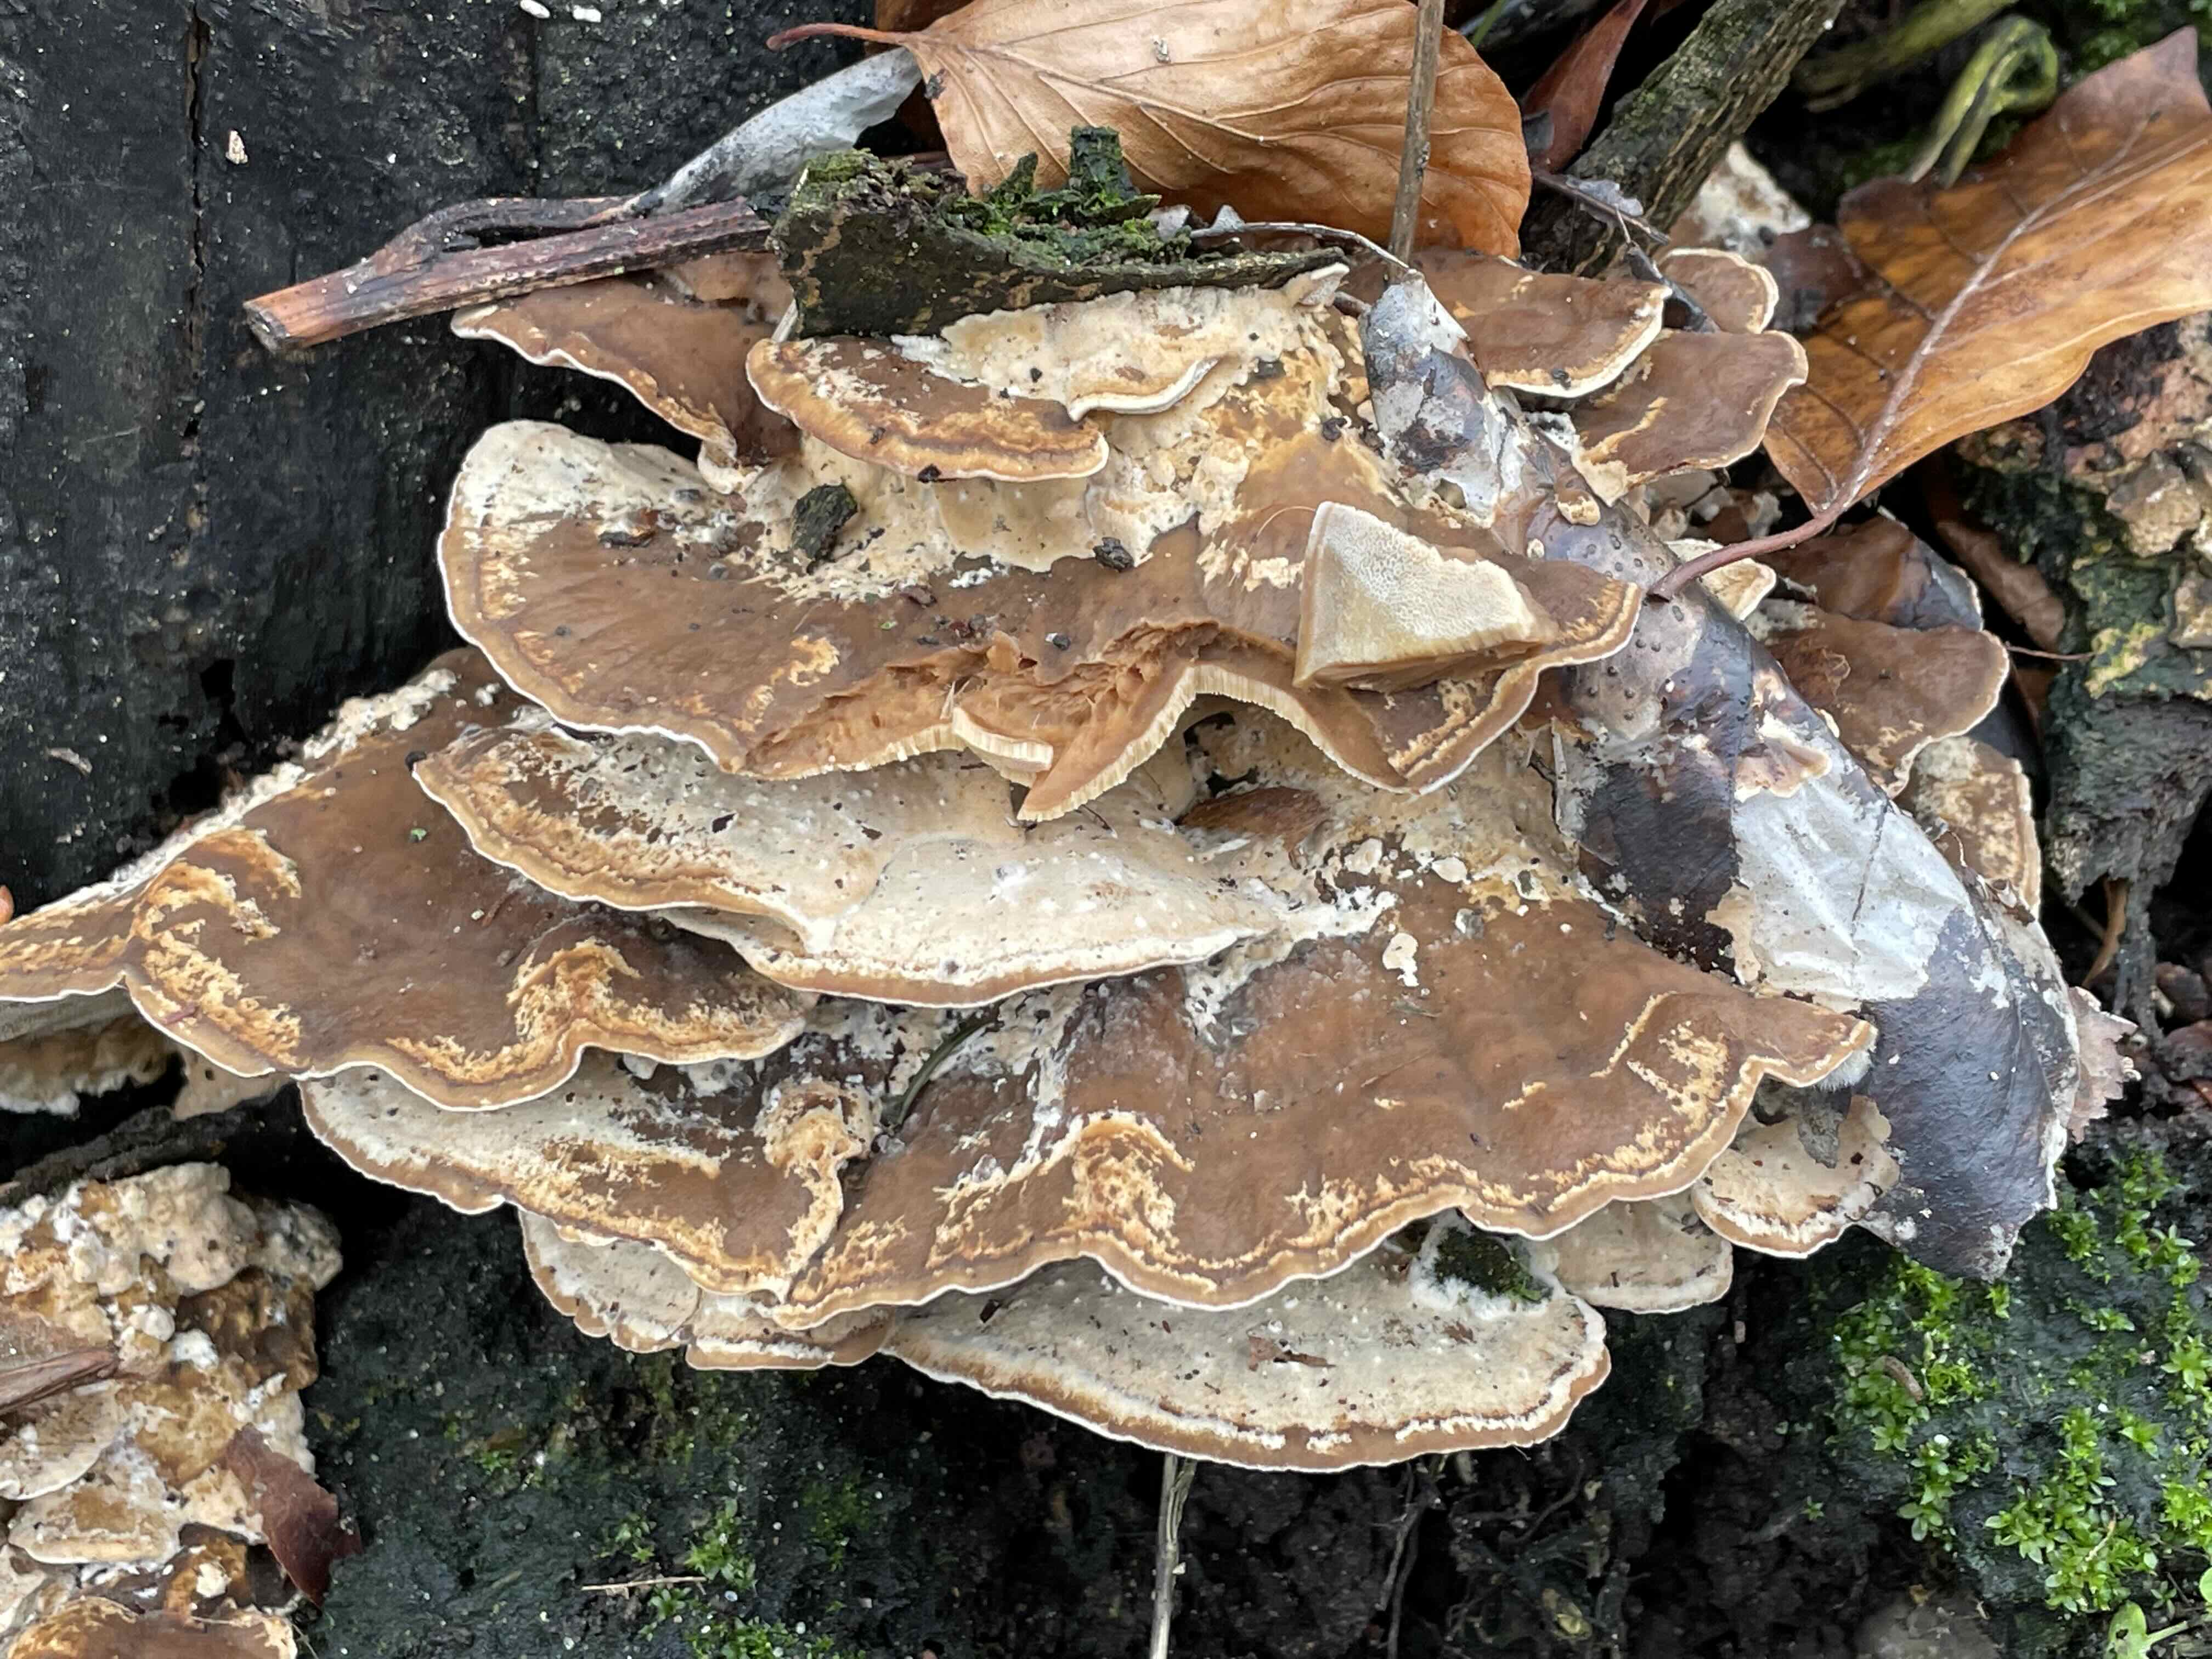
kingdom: Fungi
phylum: Basidiomycota
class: Agaricomycetes
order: Polyporales
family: Phanerochaetaceae
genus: Bjerkandera
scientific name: Bjerkandera fumosa
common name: grågul sodporesvamp
